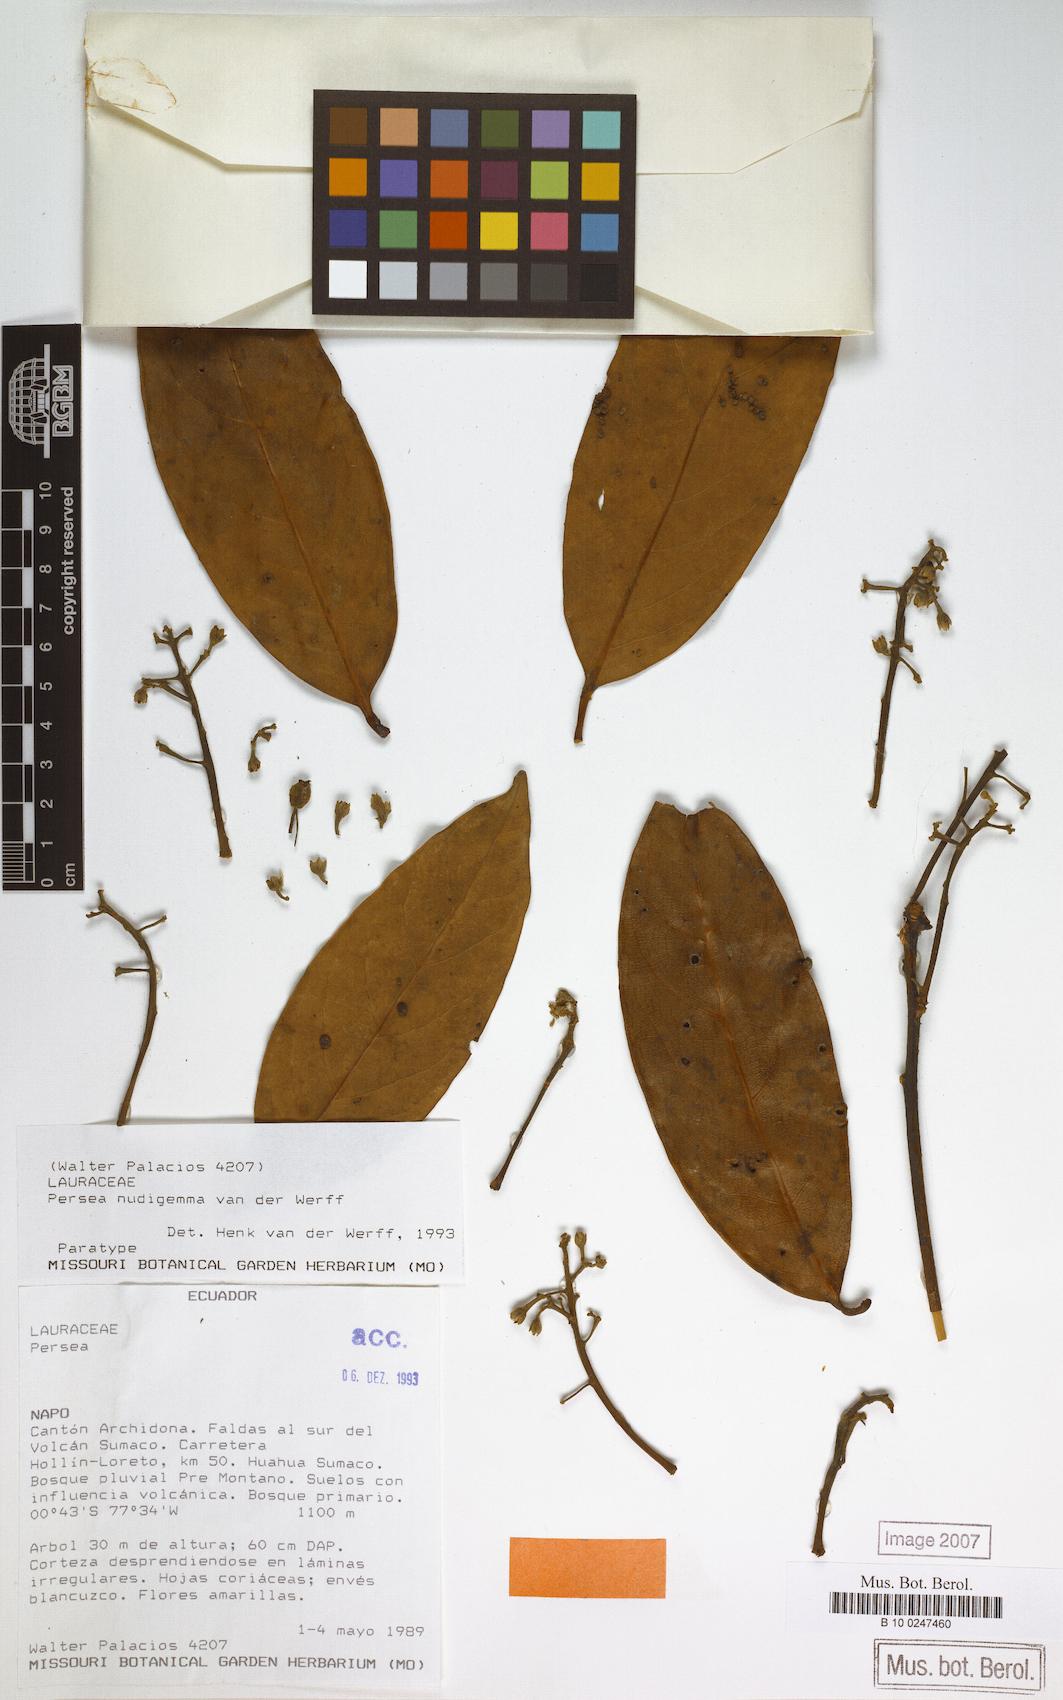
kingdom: Plantae
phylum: Tracheophyta
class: Magnoliopsida
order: Laurales
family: Lauraceae
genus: Persea
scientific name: Persea nudigemma
